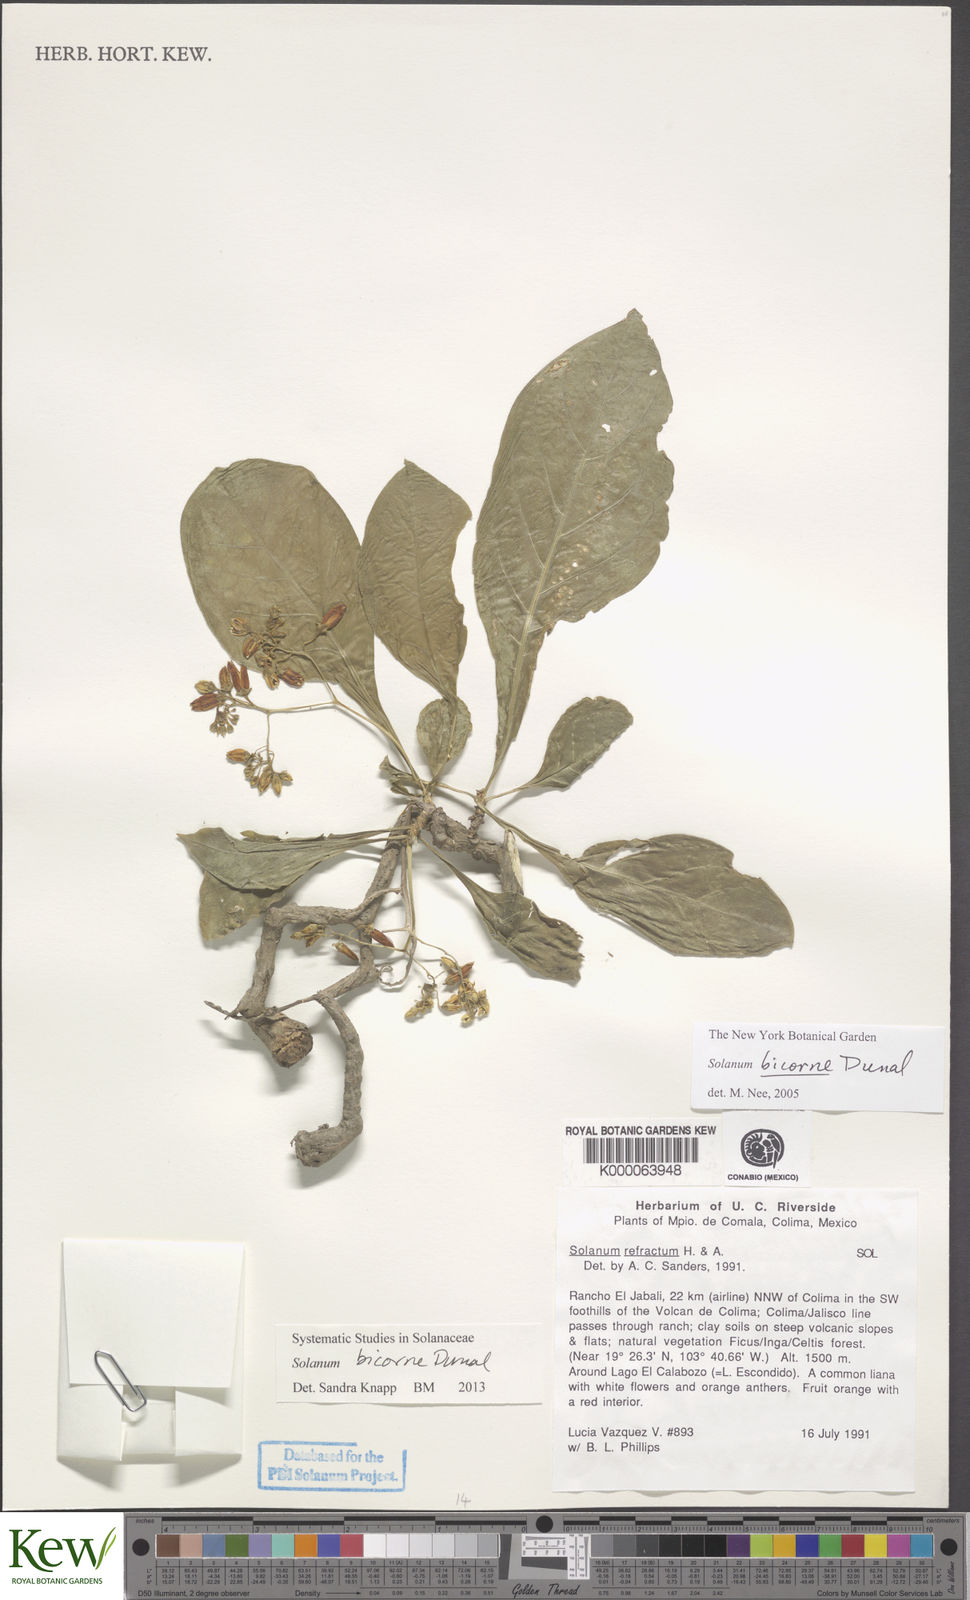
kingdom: Plantae
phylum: Tracheophyta
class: Magnoliopsida
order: Solanales
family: Solanaceae
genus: Solanum
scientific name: Solanum refractum
